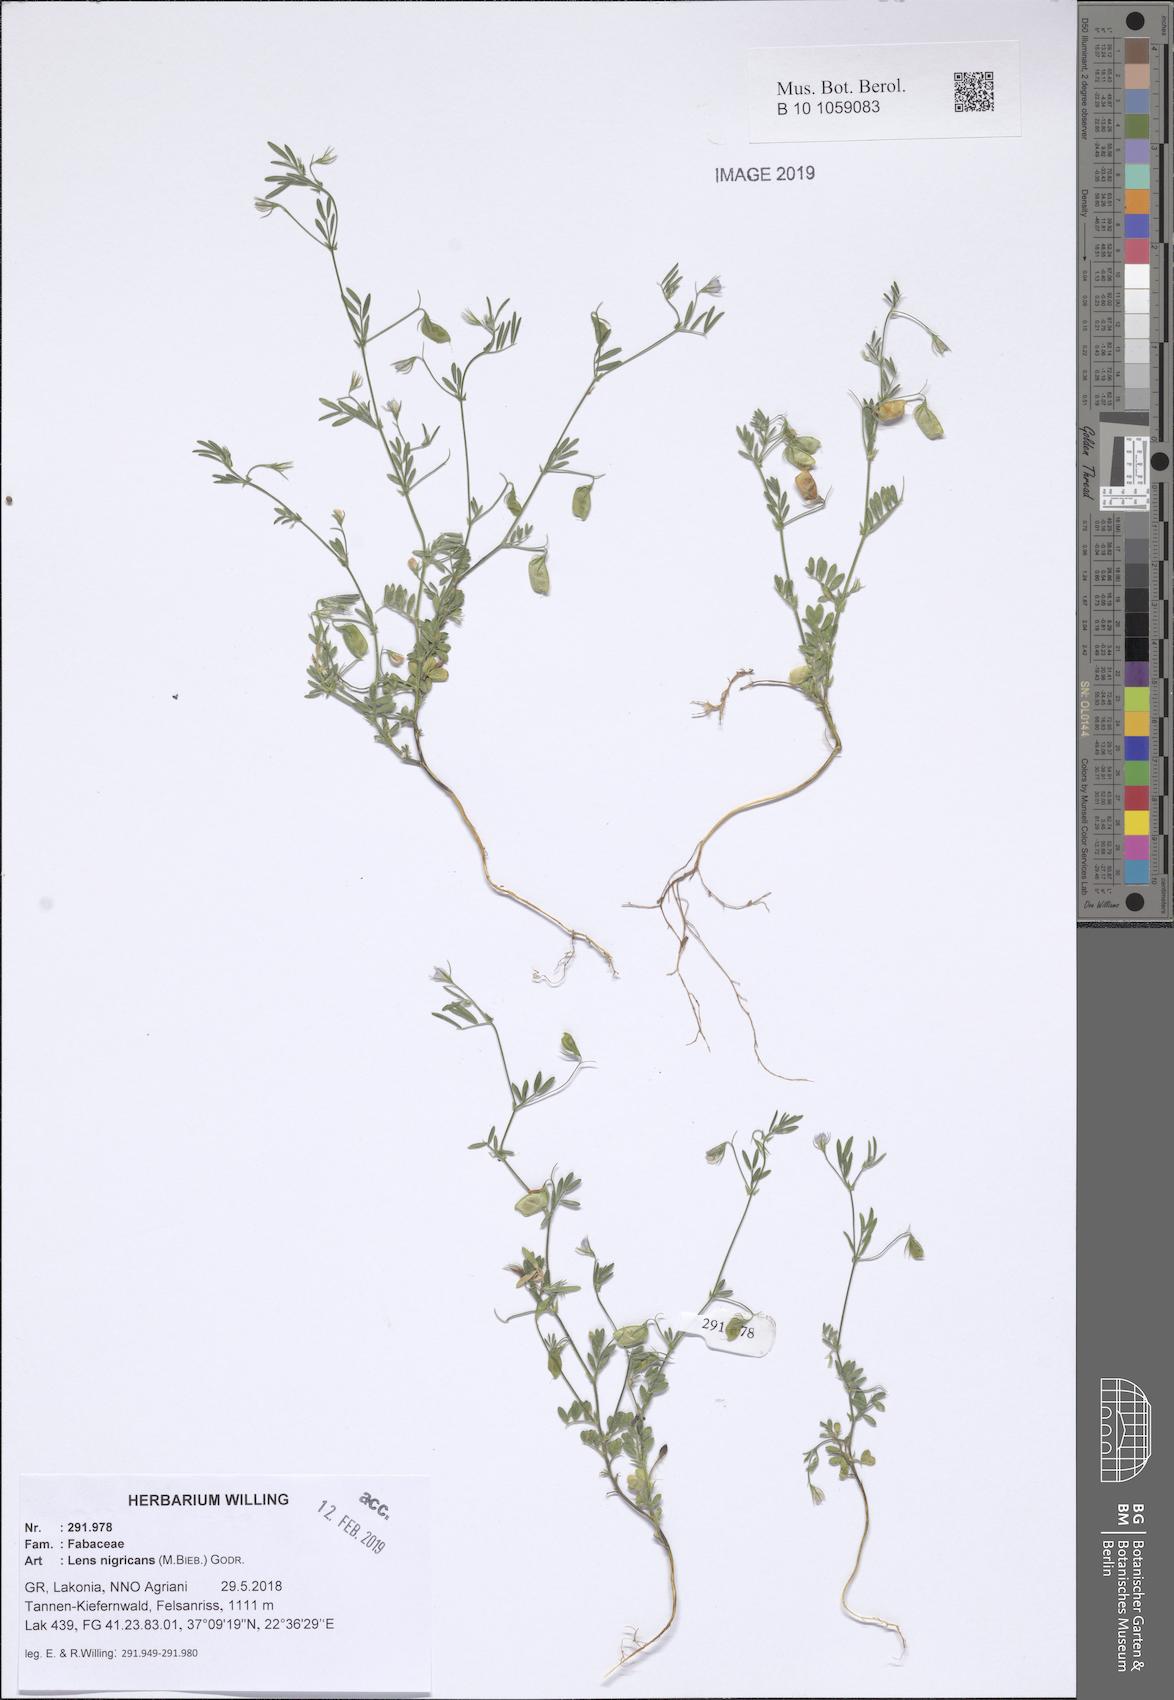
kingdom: Plantae
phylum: Tracheophyta
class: Magnoliopsida
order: Fabales
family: Fabaceae
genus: Vicia
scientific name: Vicia lentoides
